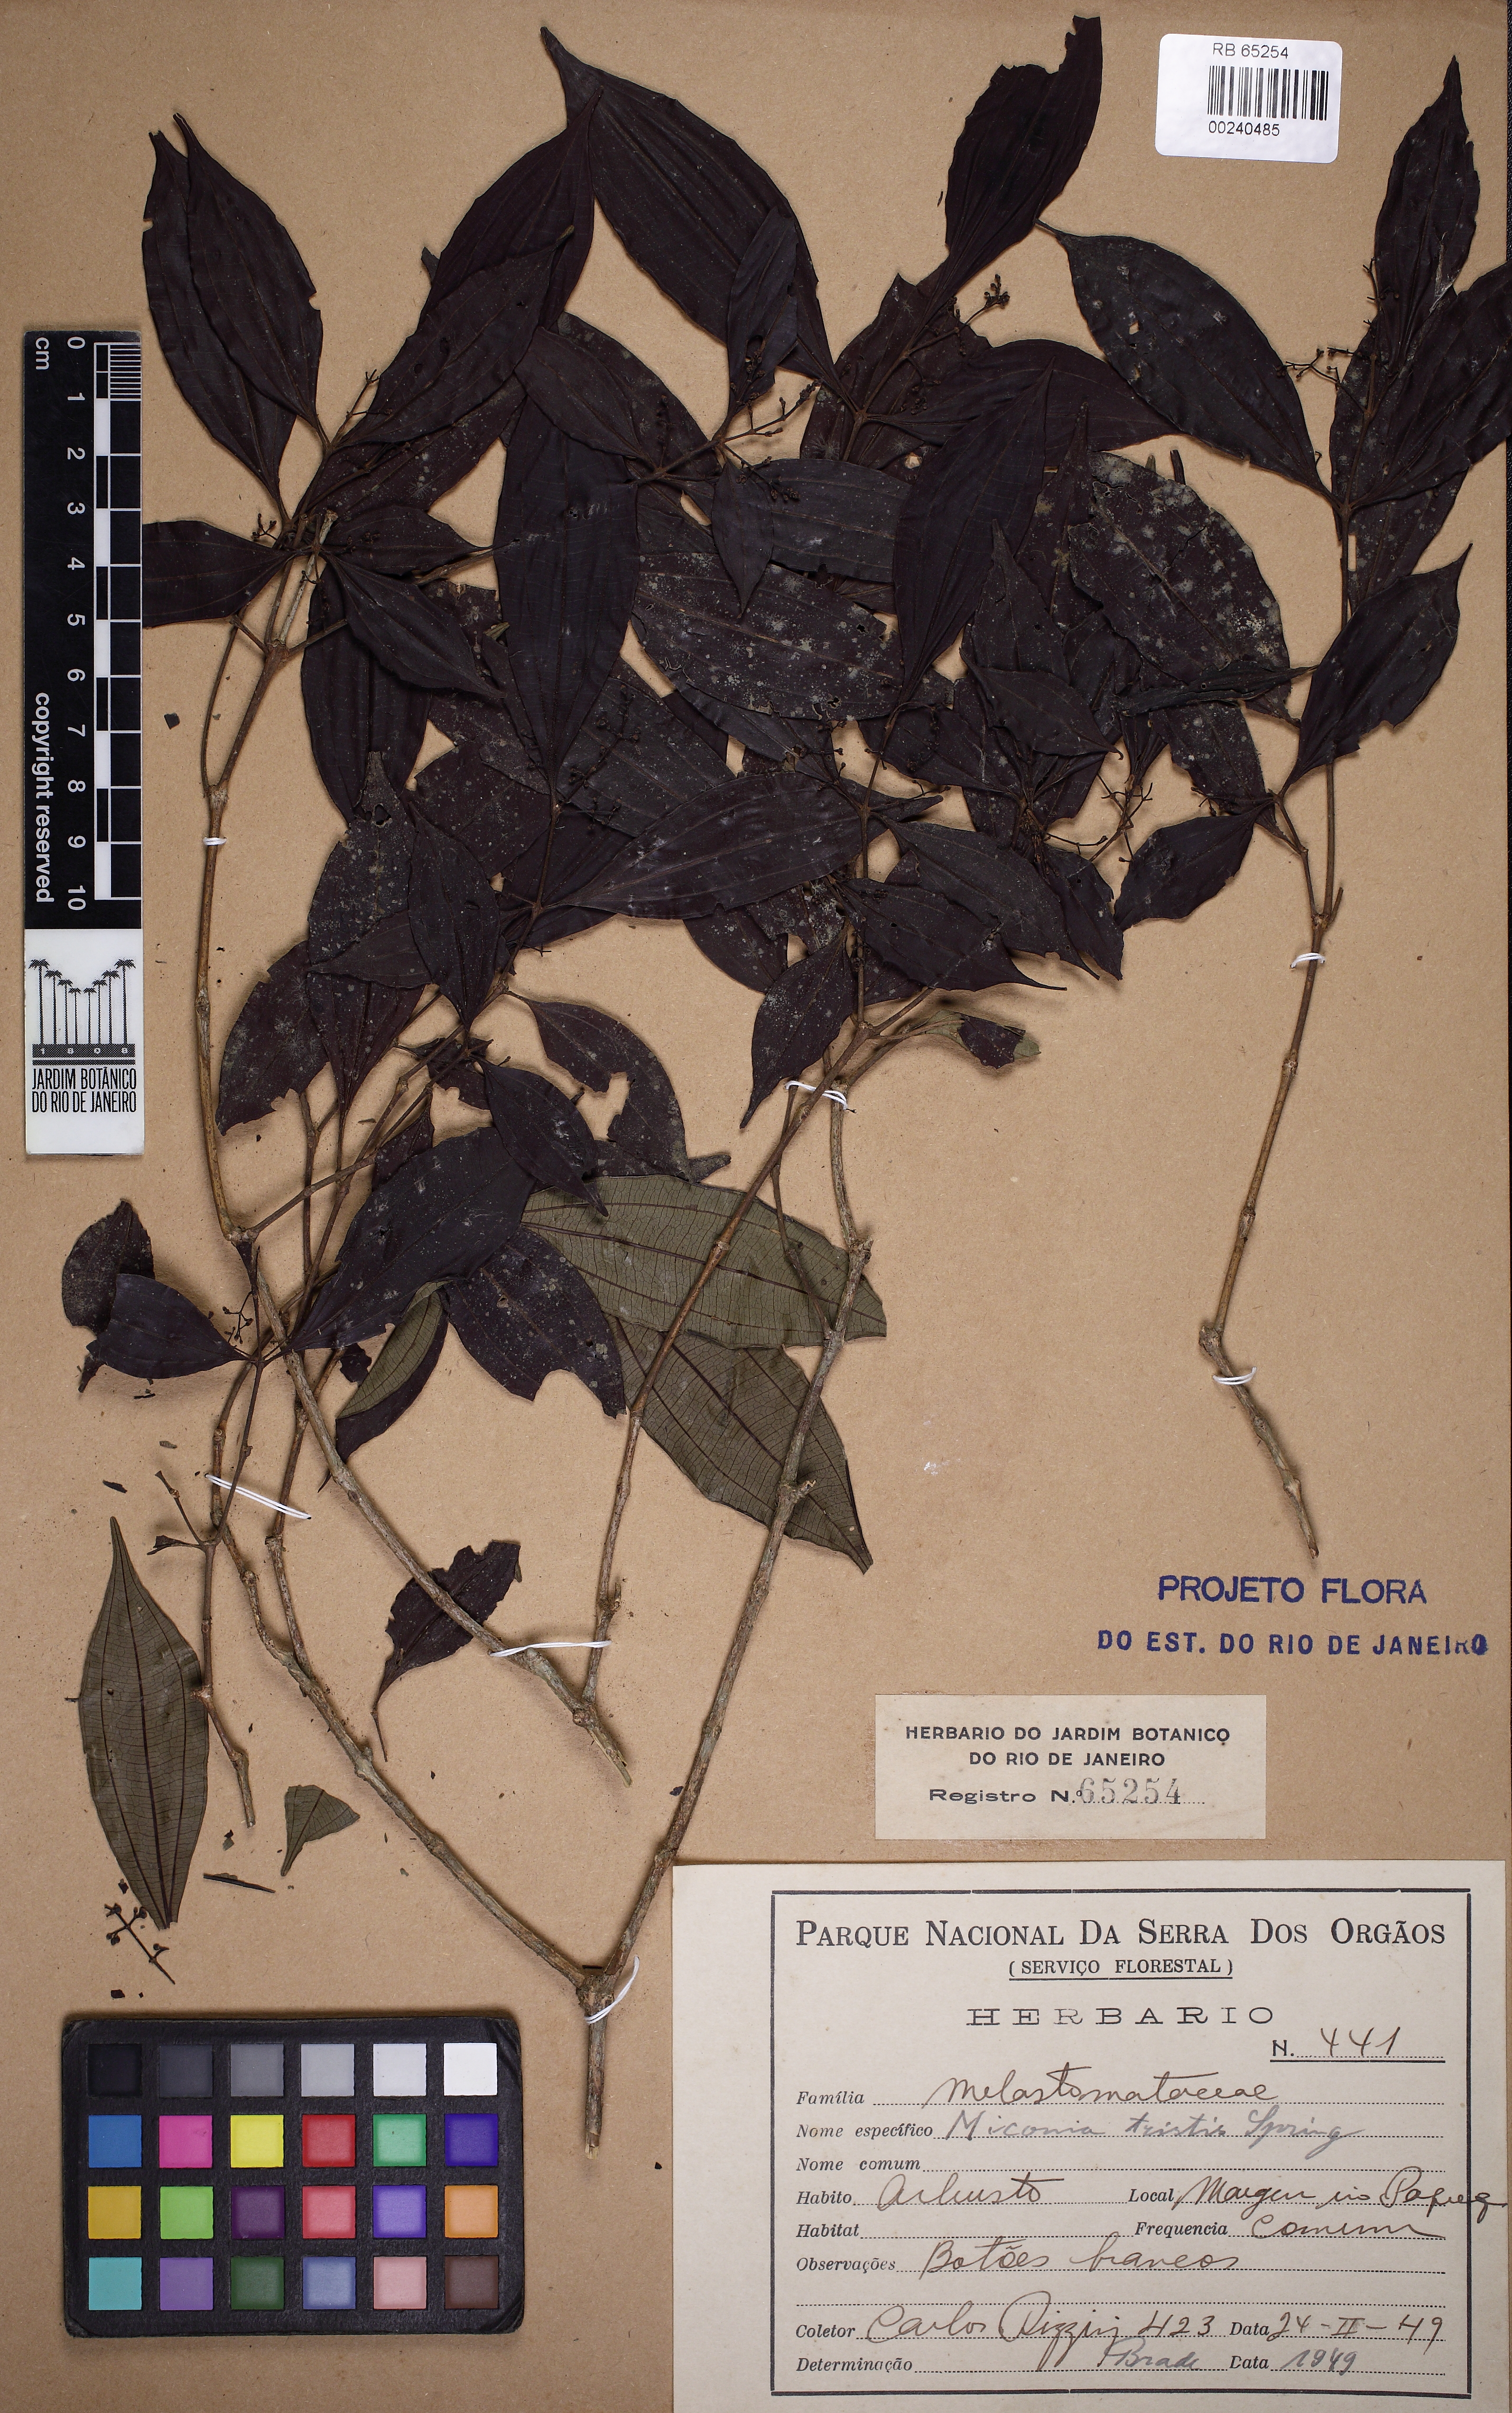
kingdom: Plantae
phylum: Tracheophyta
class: Magnoliopsida
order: Myrtales
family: Melastomataceae
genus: Miconia
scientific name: Miconia tristis
